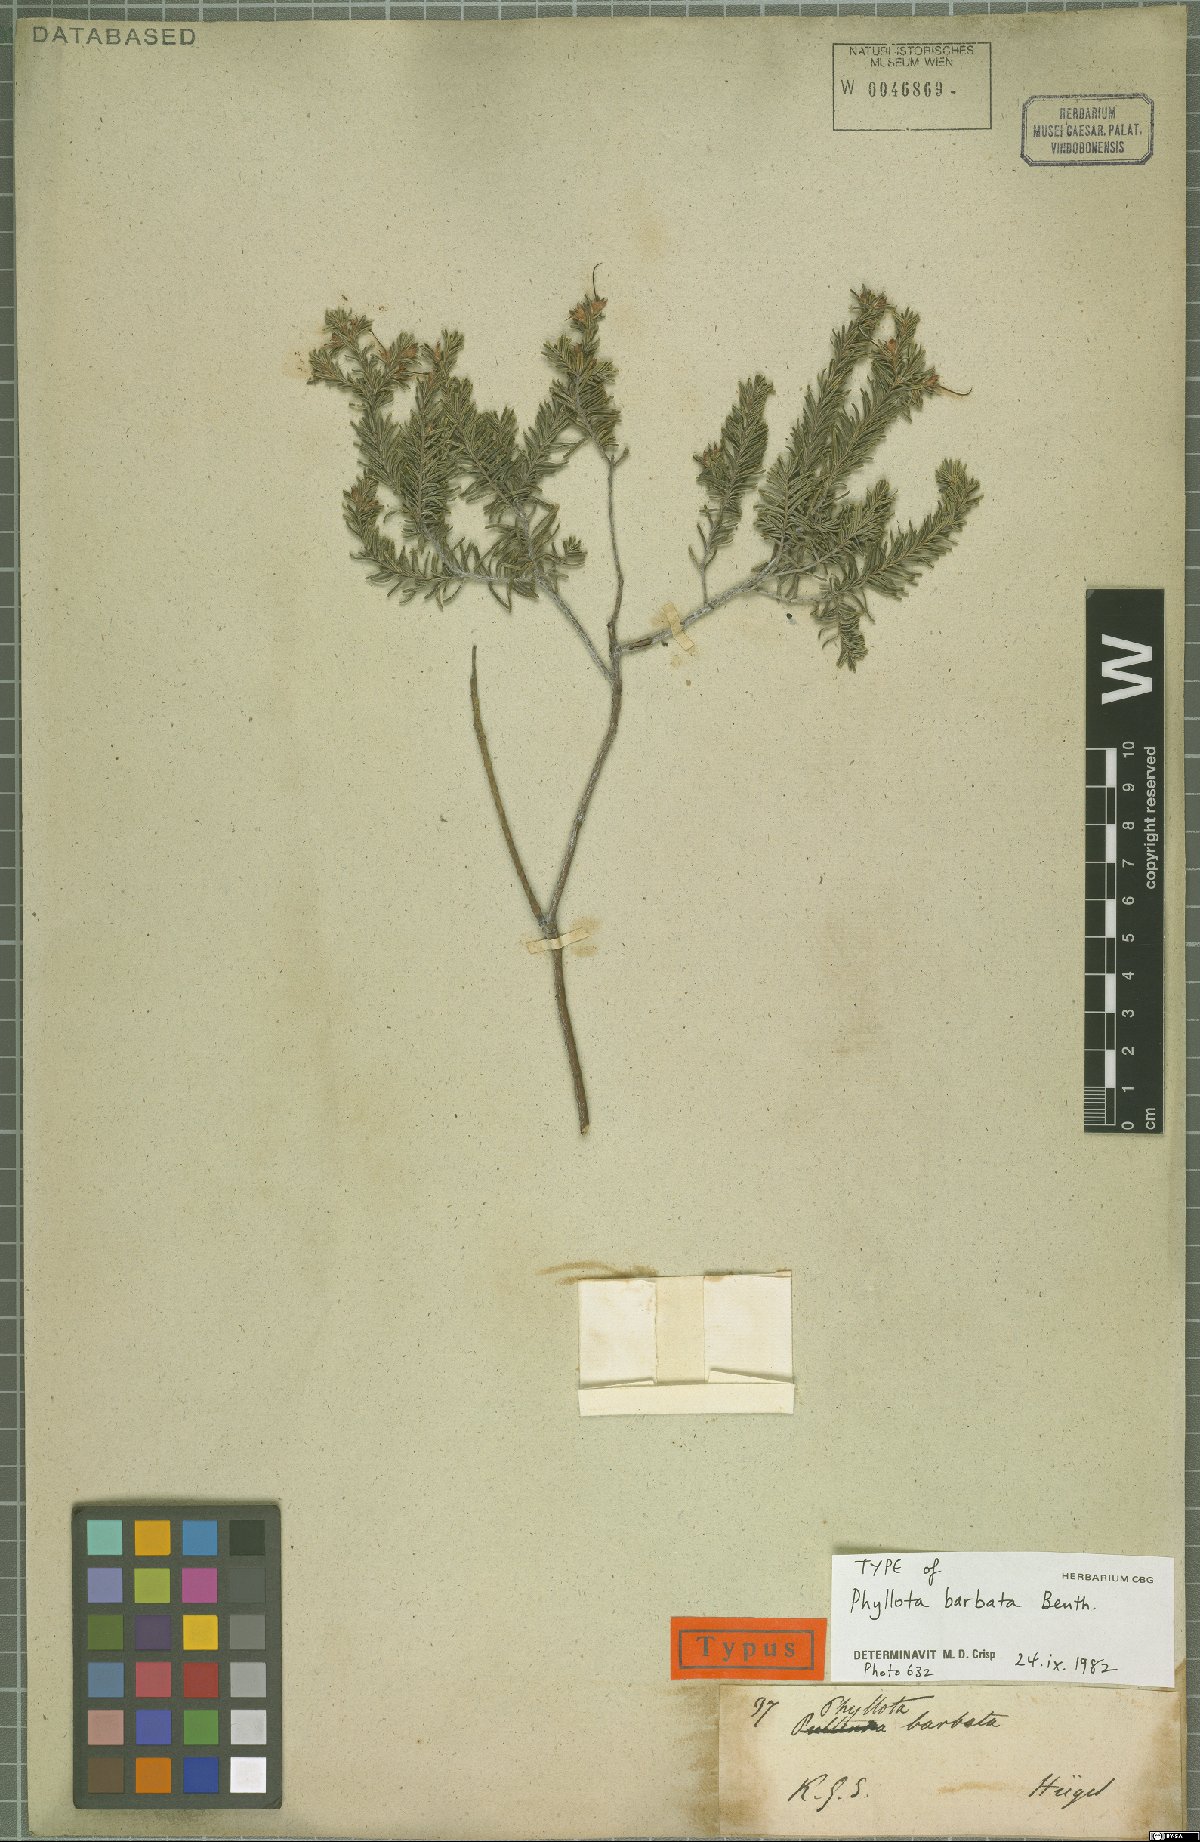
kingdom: Plantae
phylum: Tracheophyta
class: Magnoliopsida
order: Fabales
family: Fabaceae
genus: Phyllota
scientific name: Phyllota barbata
